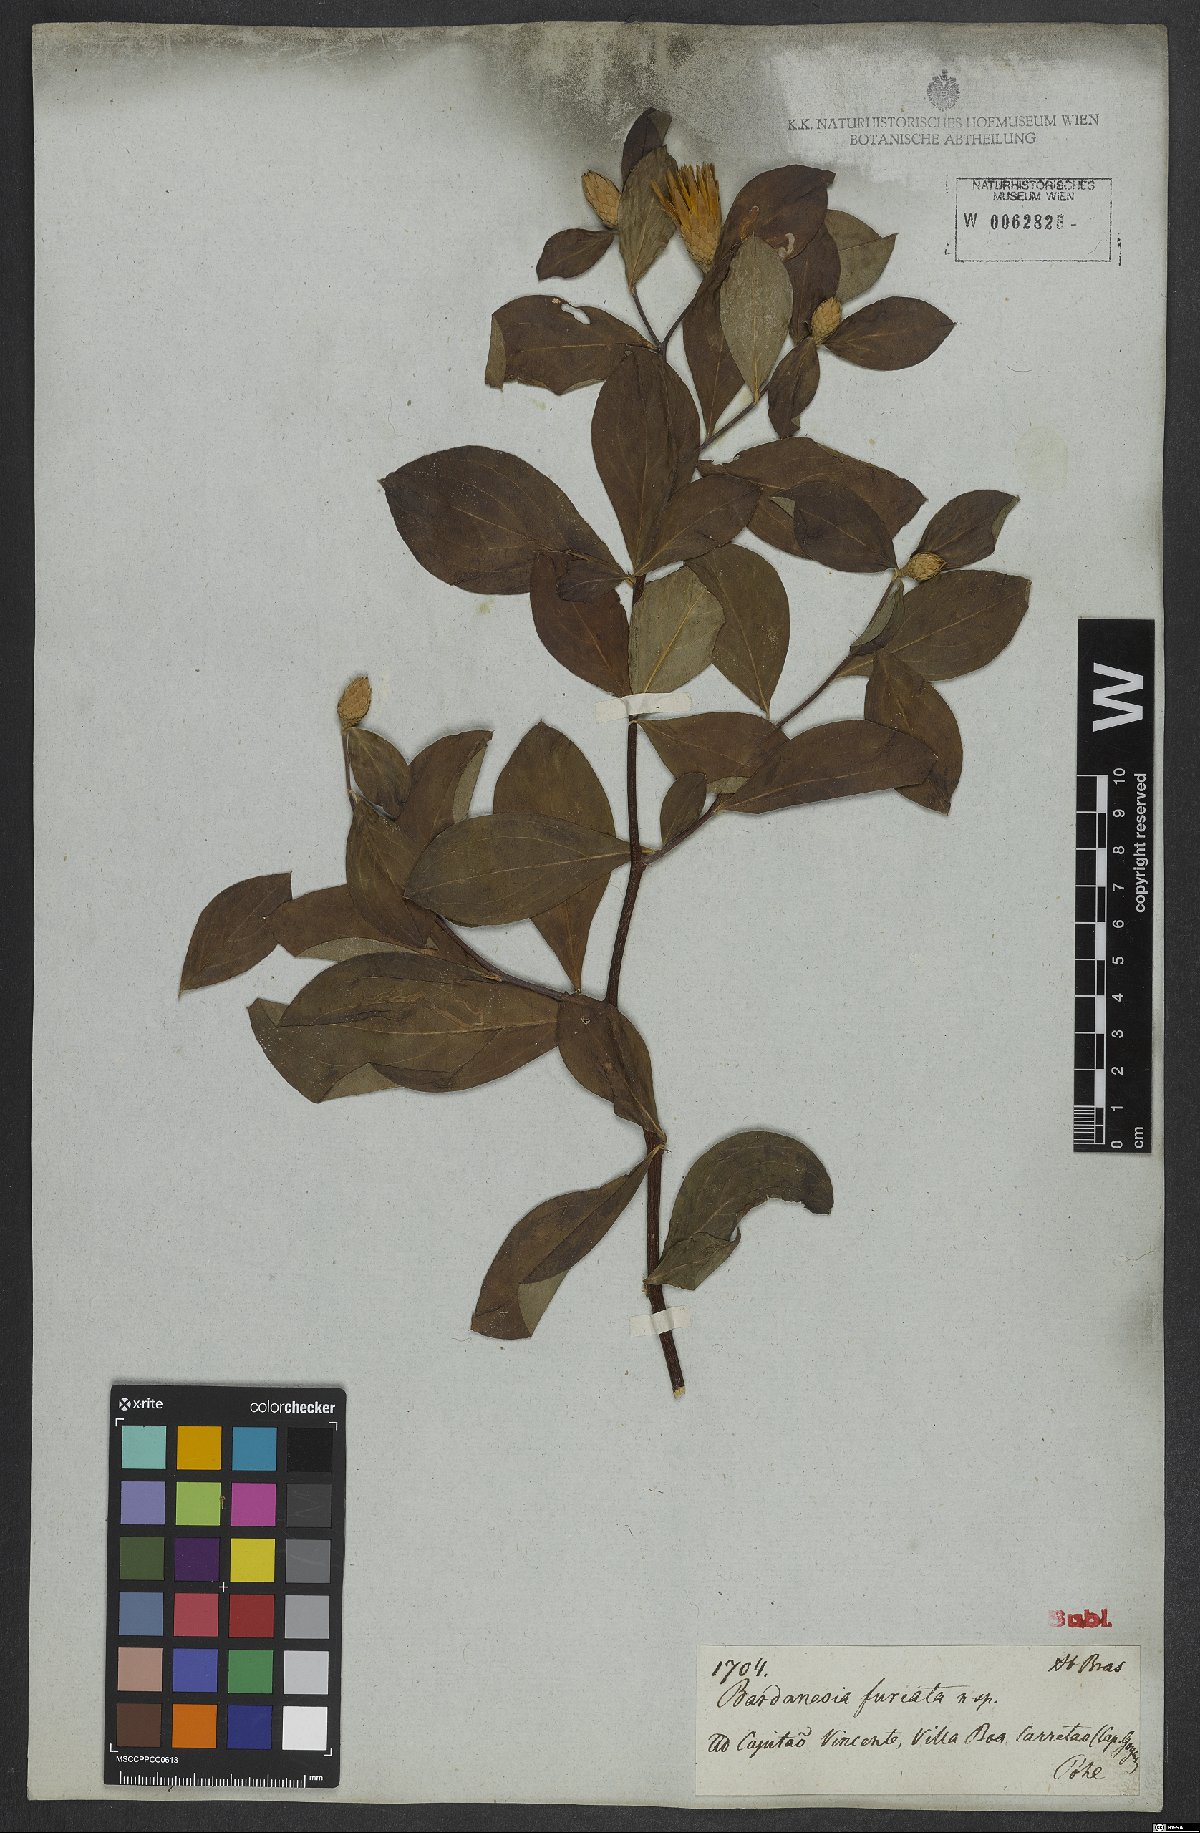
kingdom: Plantae
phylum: Tracheophyta
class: Magnoliopsida
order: Asterales
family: Asteraceae
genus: Barnadesia
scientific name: Barnadesia caryophylla
